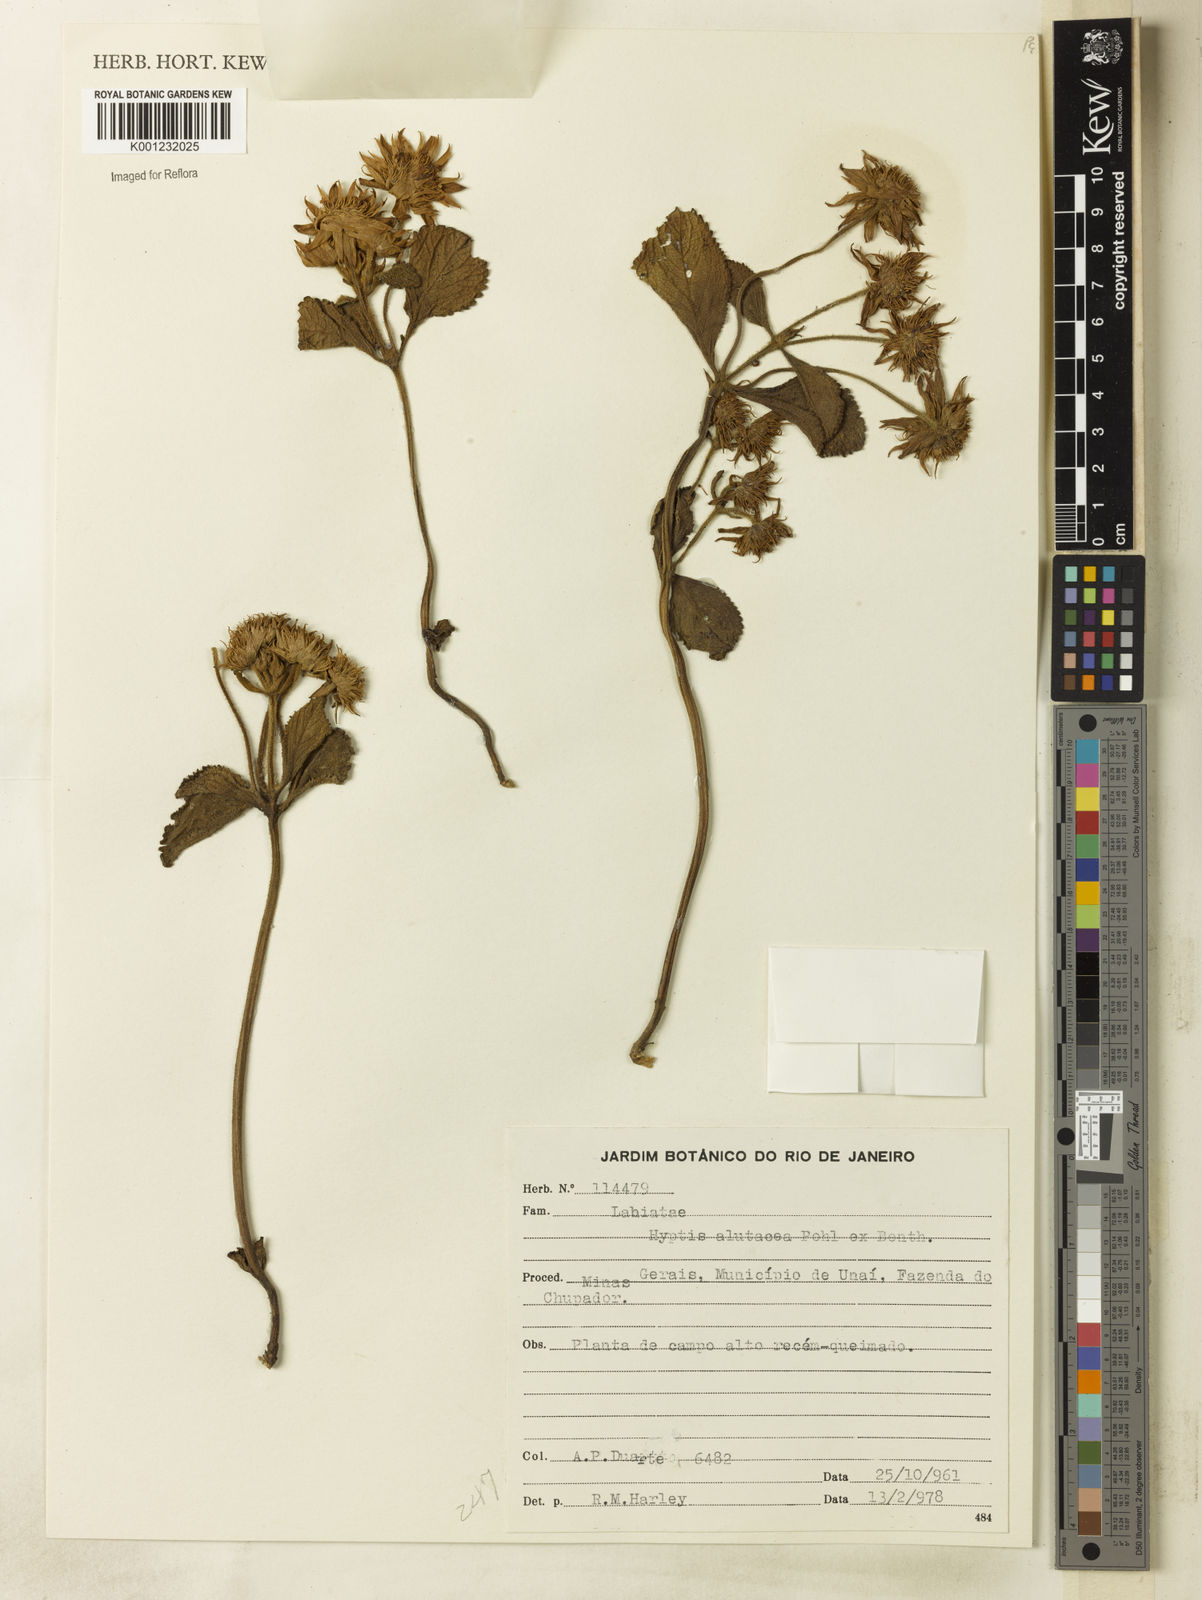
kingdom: Plantae
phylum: Tracheophyta
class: Magnoliopsida
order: Lamiales
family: Lamiaceae
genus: Hyptis
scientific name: Hyptis alutacea
